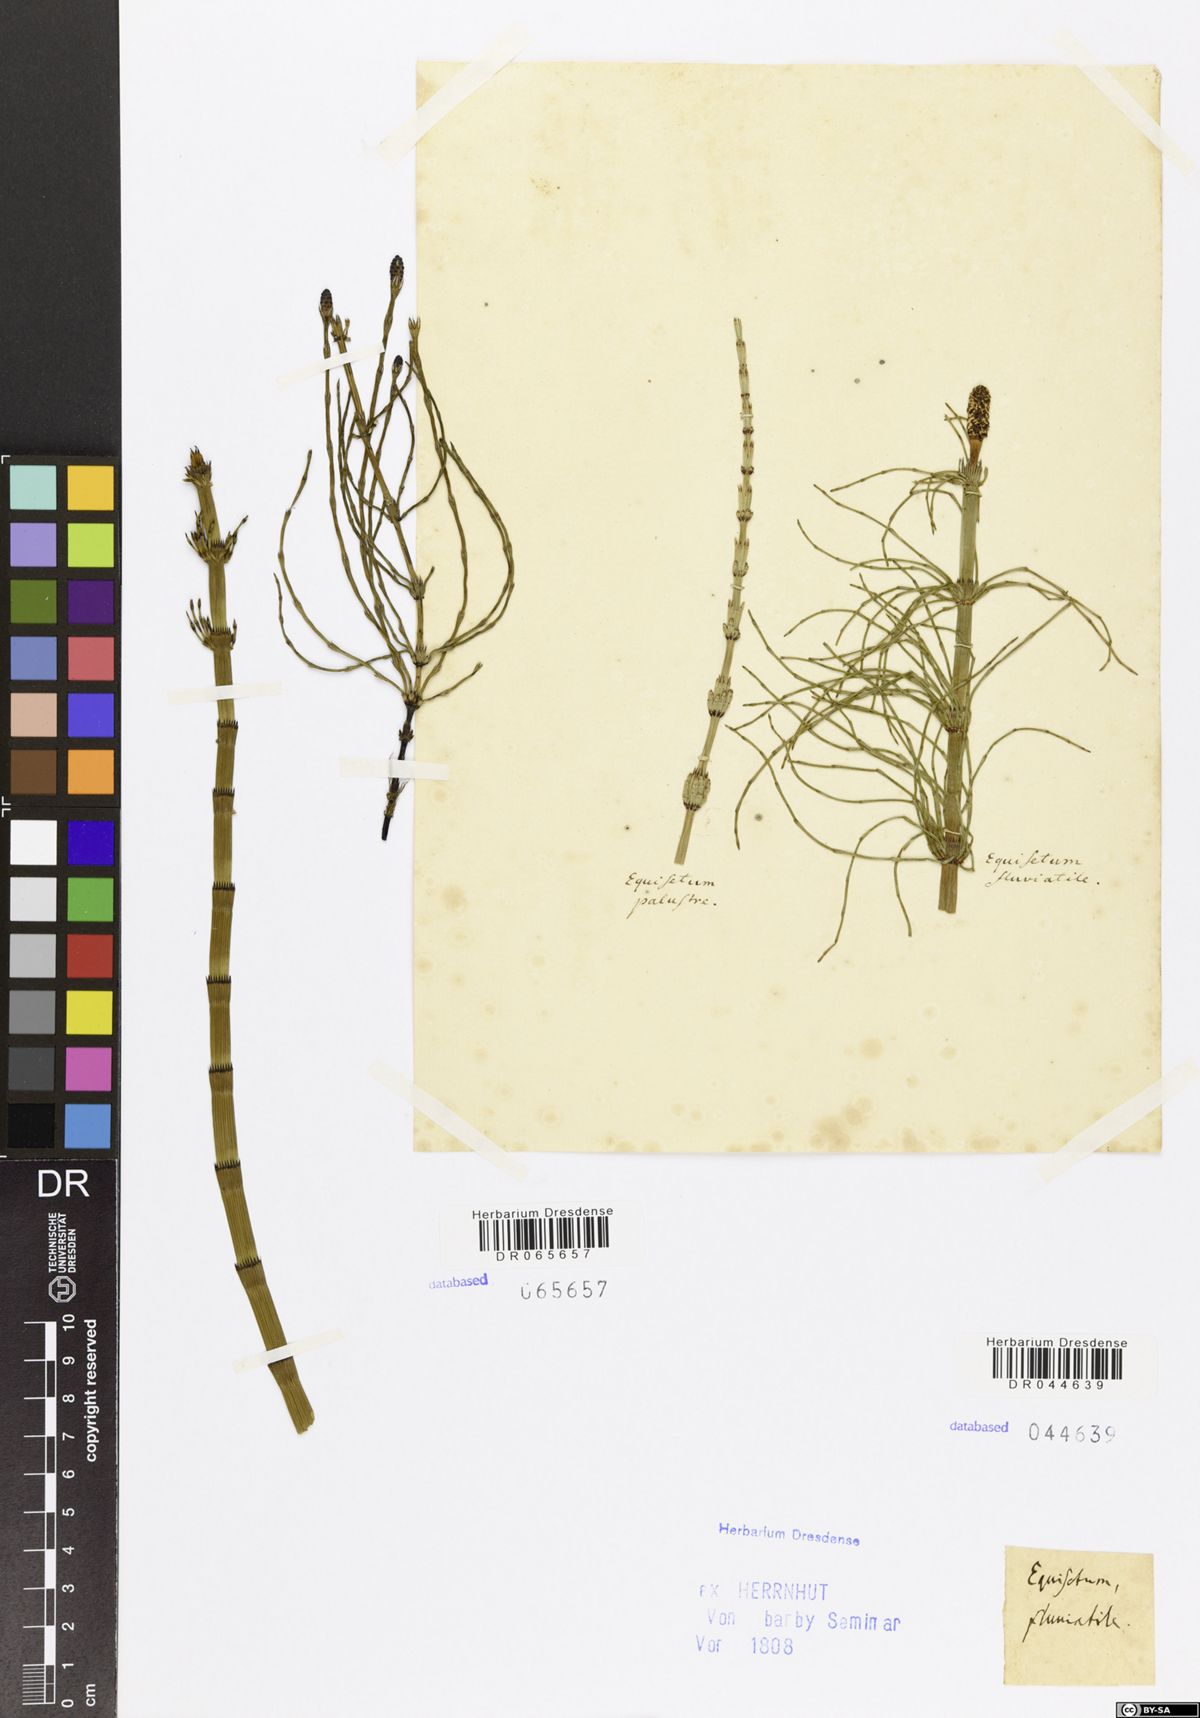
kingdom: Plantae
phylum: Tracheophyta
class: Polypodiopsida
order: Equisetales
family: Equisetaceae
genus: Equisetum
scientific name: Equisetum fluviatile
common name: Water horsetail
